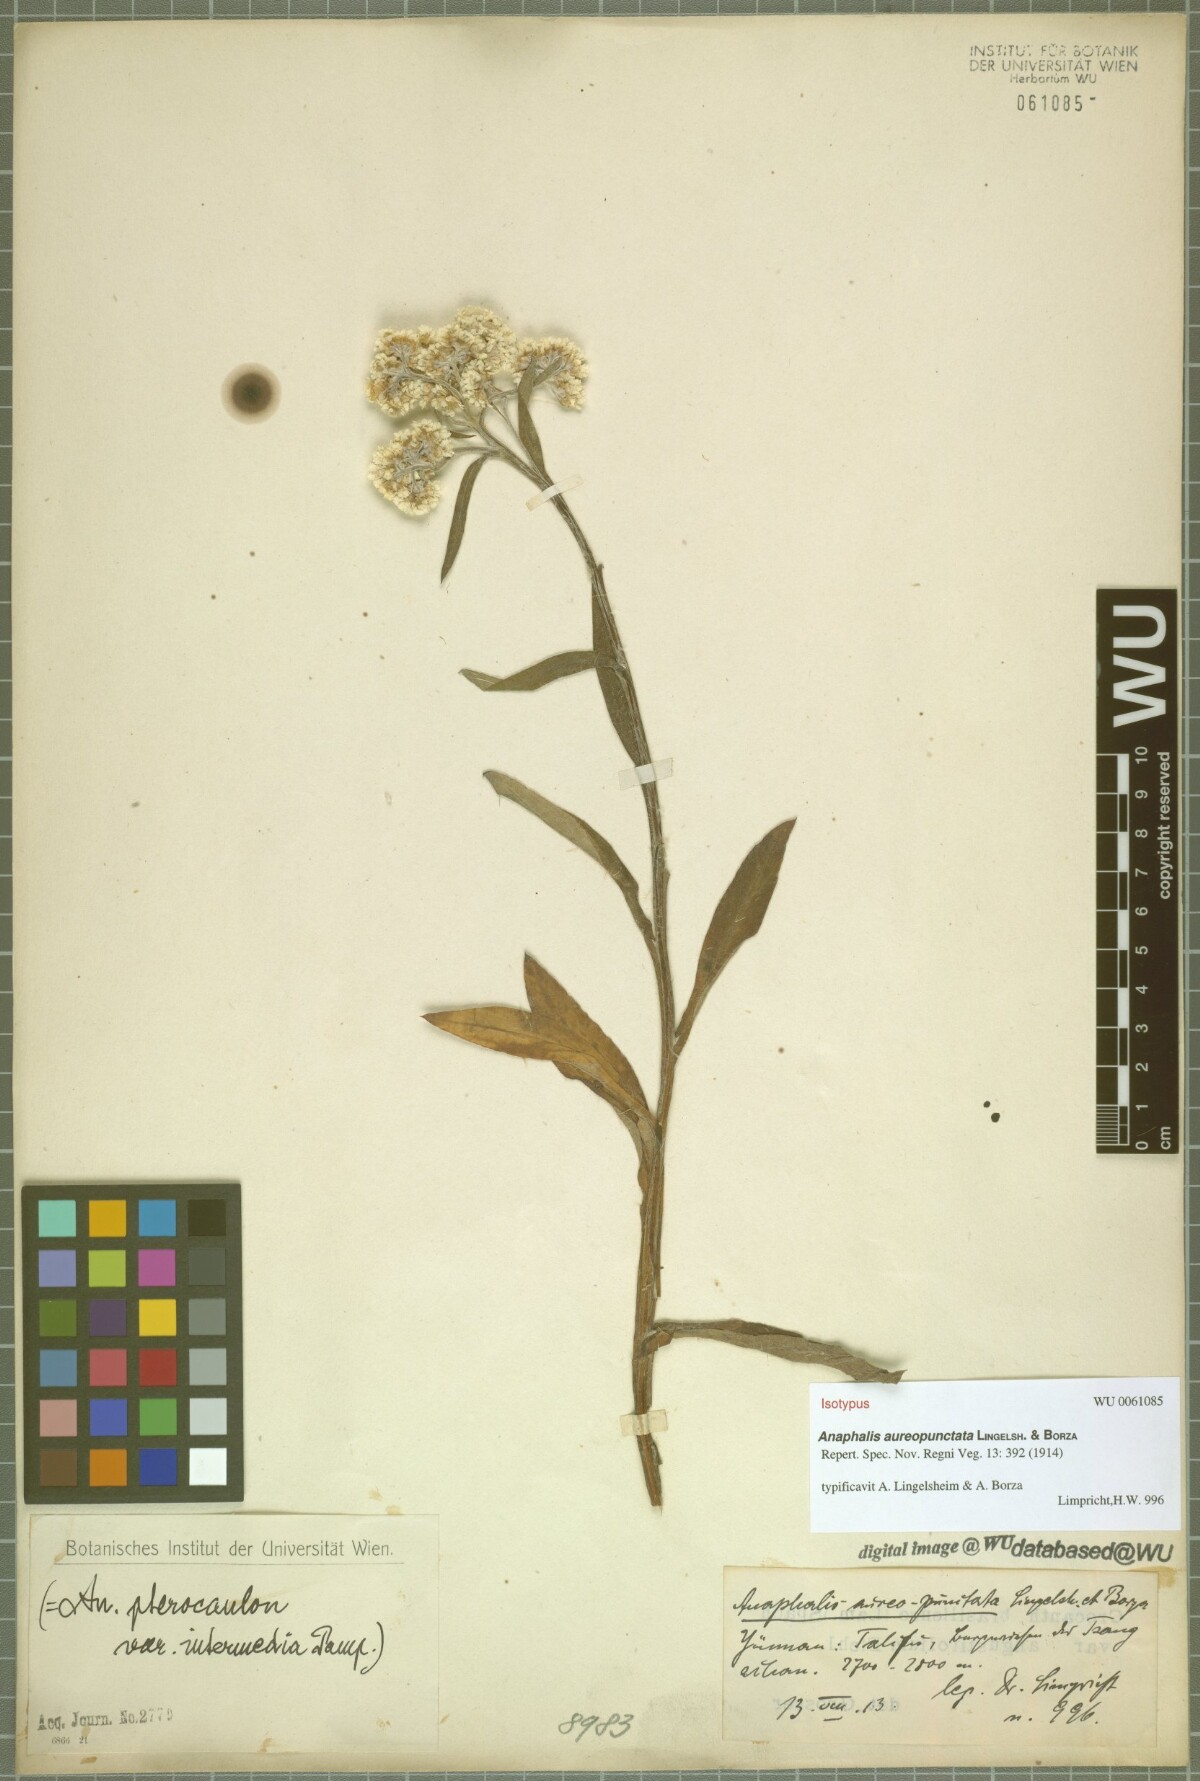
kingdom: Plantae
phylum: Tracheophyta
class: Magnoliopsida
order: Asterales
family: Asteraceae
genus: Anaphalis
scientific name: Anaphalis aureopunctata
